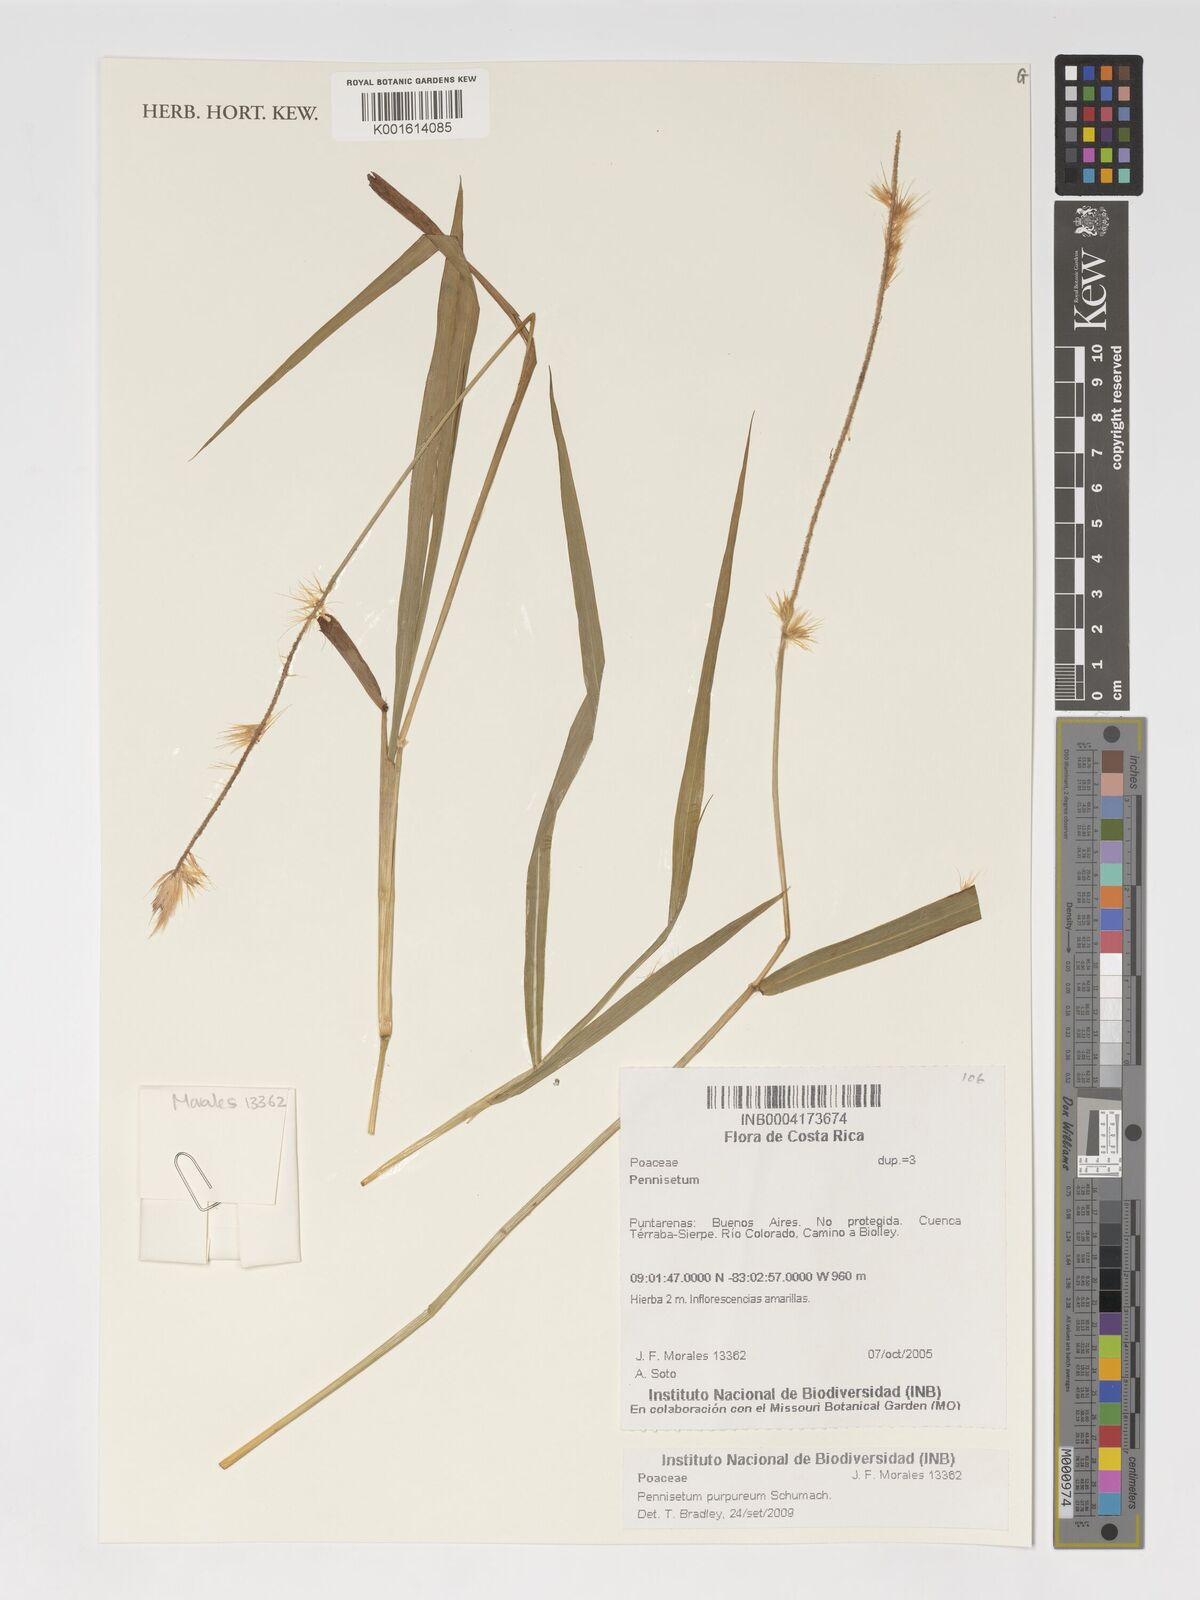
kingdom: Plantae
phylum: Tracheophyta
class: Liliopsida
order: Poales
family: Poaceae
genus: Cenchrus
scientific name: Cenchrus purpureus
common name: Elephant grass
